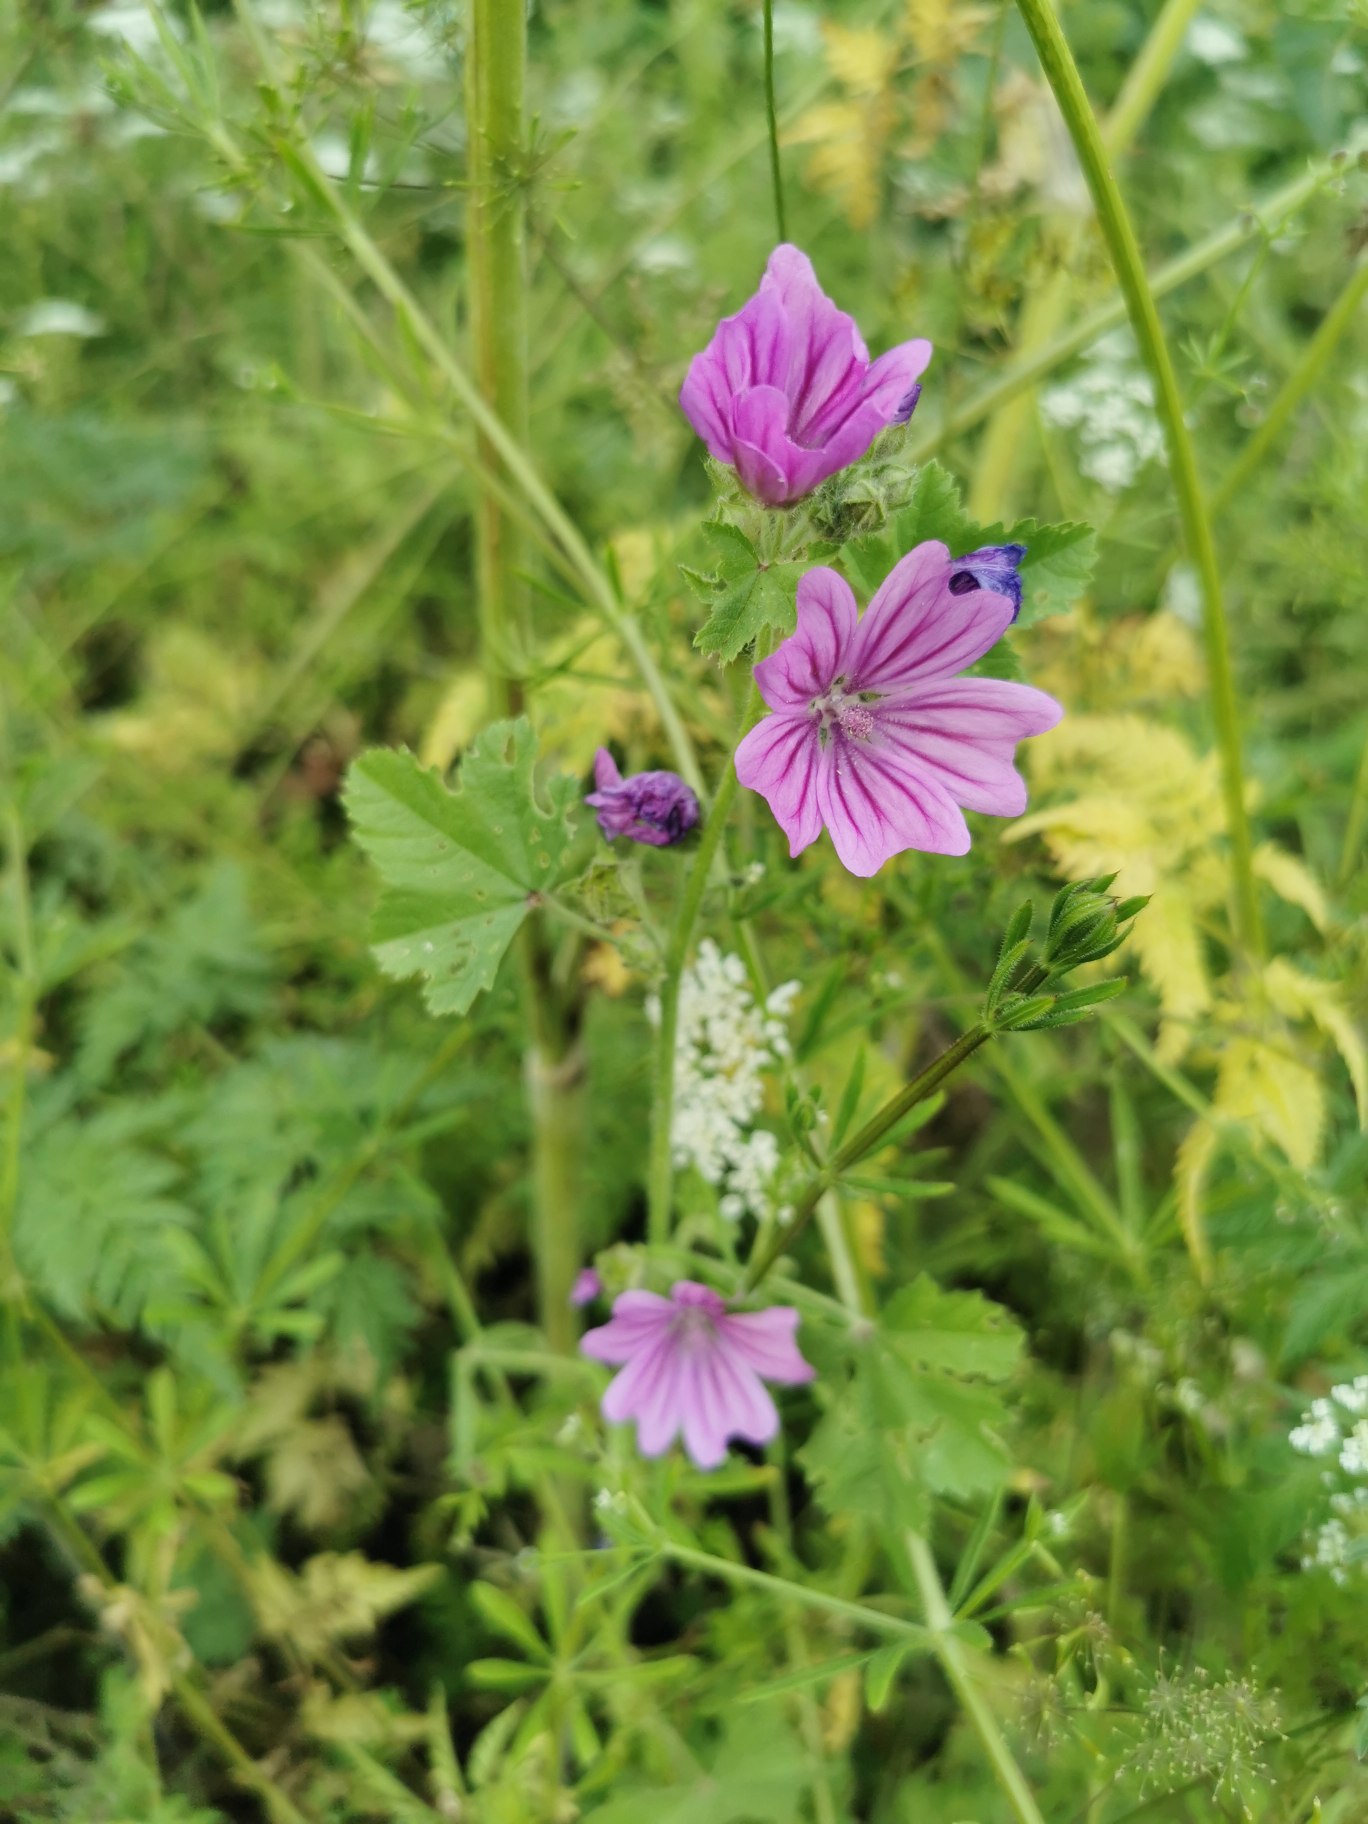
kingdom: Plantae
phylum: Tracheophyta
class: Magnoliopsida
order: Malvales
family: Malvaceae
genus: Malva
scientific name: Malva sylvestris
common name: Almindelig katost
